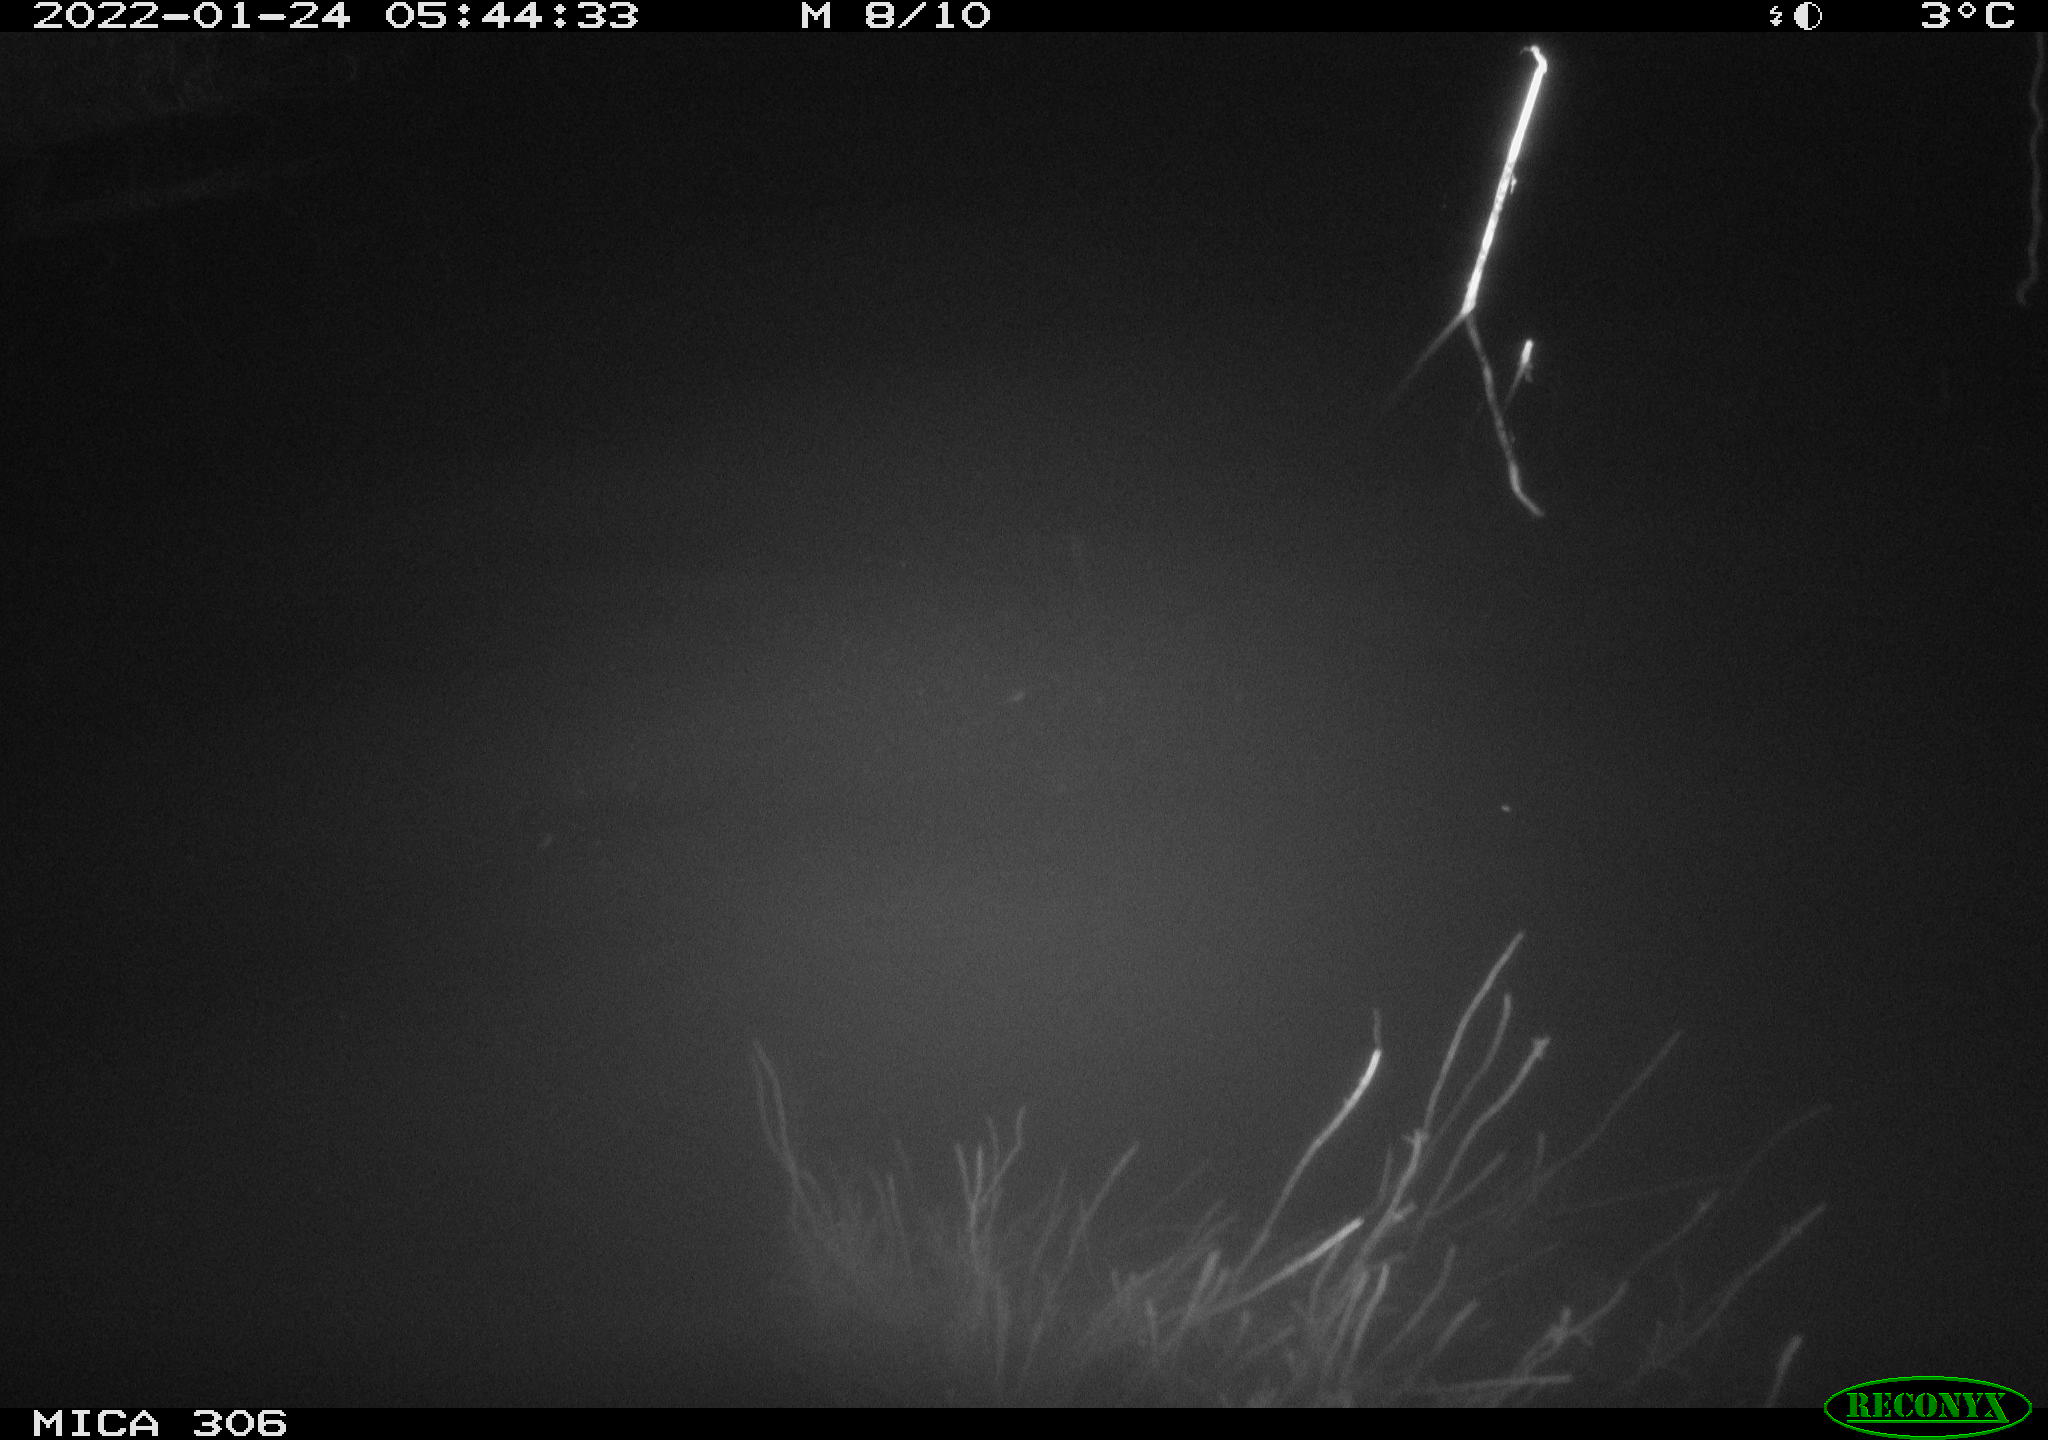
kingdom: Animalia
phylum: Chordata
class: Mammalia
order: Rodentia
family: Cricetidae
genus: Ondatra
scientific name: Ondatra zibethicus
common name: Muskrat
